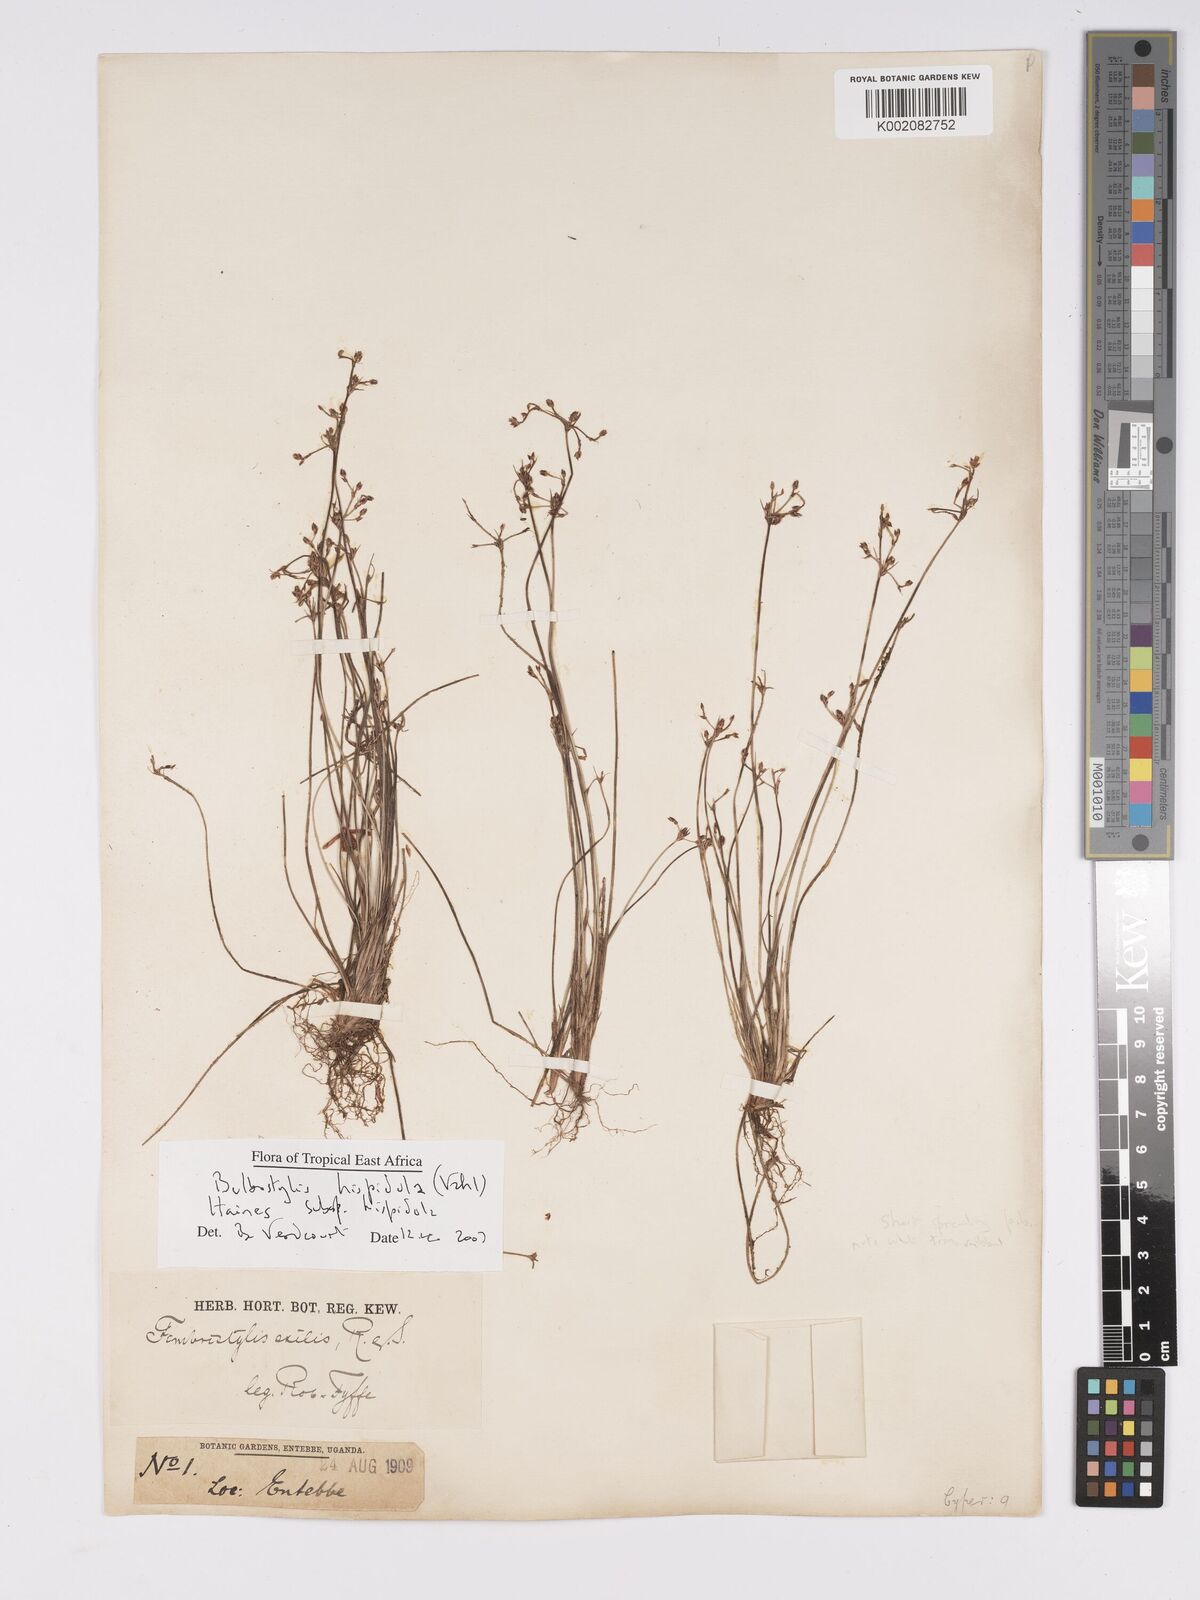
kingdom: Plantae
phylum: Tracheophyta
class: Liliopsida
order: Poales
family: Cyperaceae
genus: Bulbostylis
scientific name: Bulbostylis hispidula
